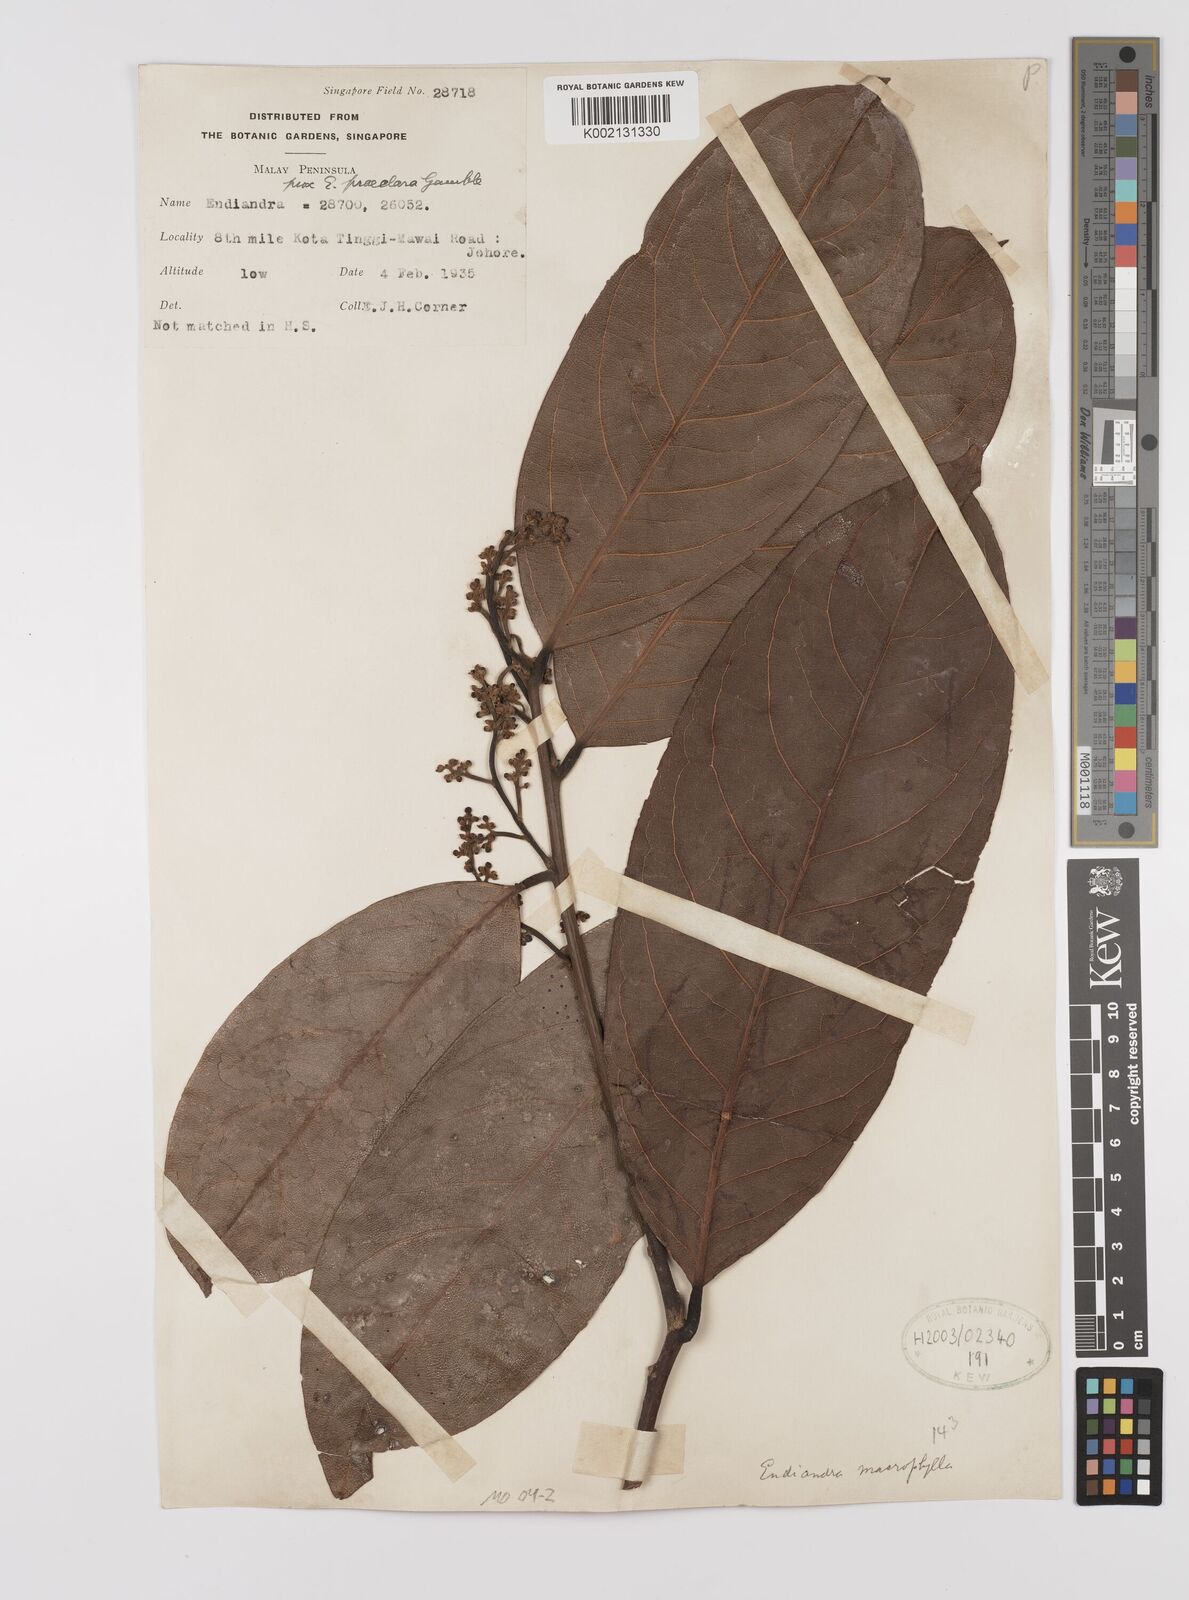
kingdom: Plantae
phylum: Tracheophyta
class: Magnoliopsida
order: Laurales
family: Lauraceae
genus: Endiandra
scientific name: Endiandra praeclara
